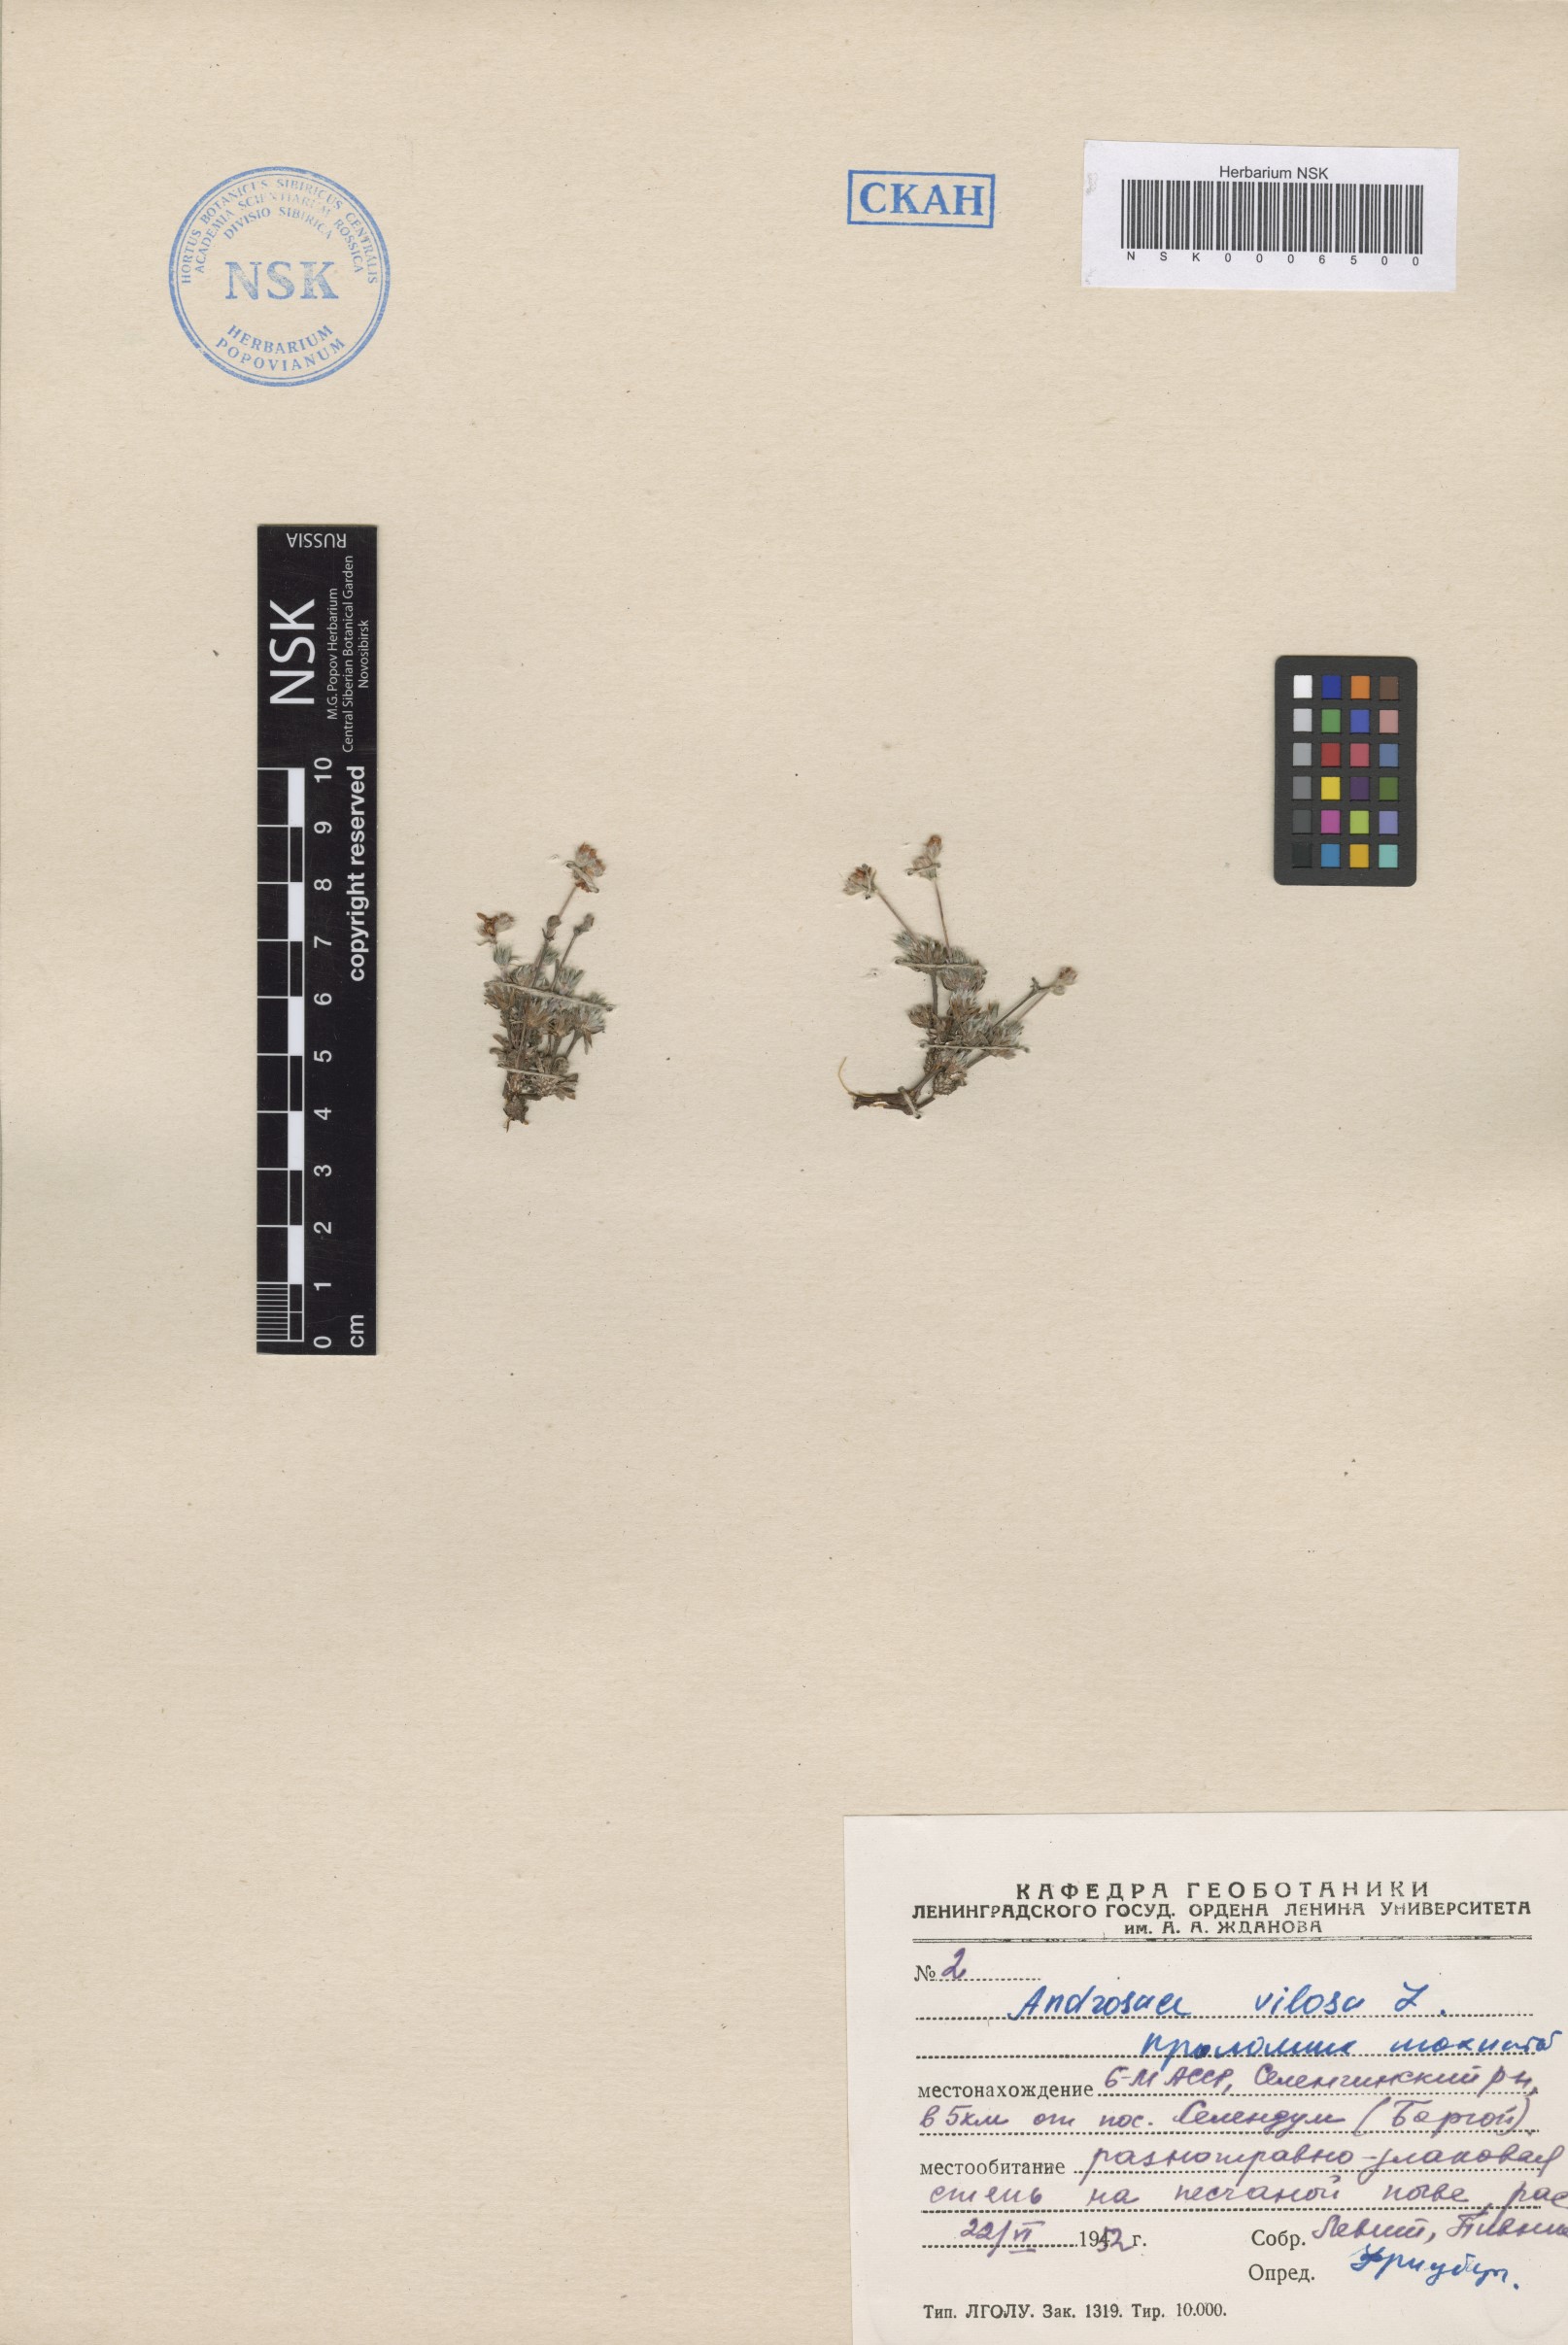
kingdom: Plantae
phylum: Tracheophyta
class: Magnoliopsida
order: Ericales
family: Primulaceae
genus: Androsace
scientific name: Androsace incana
